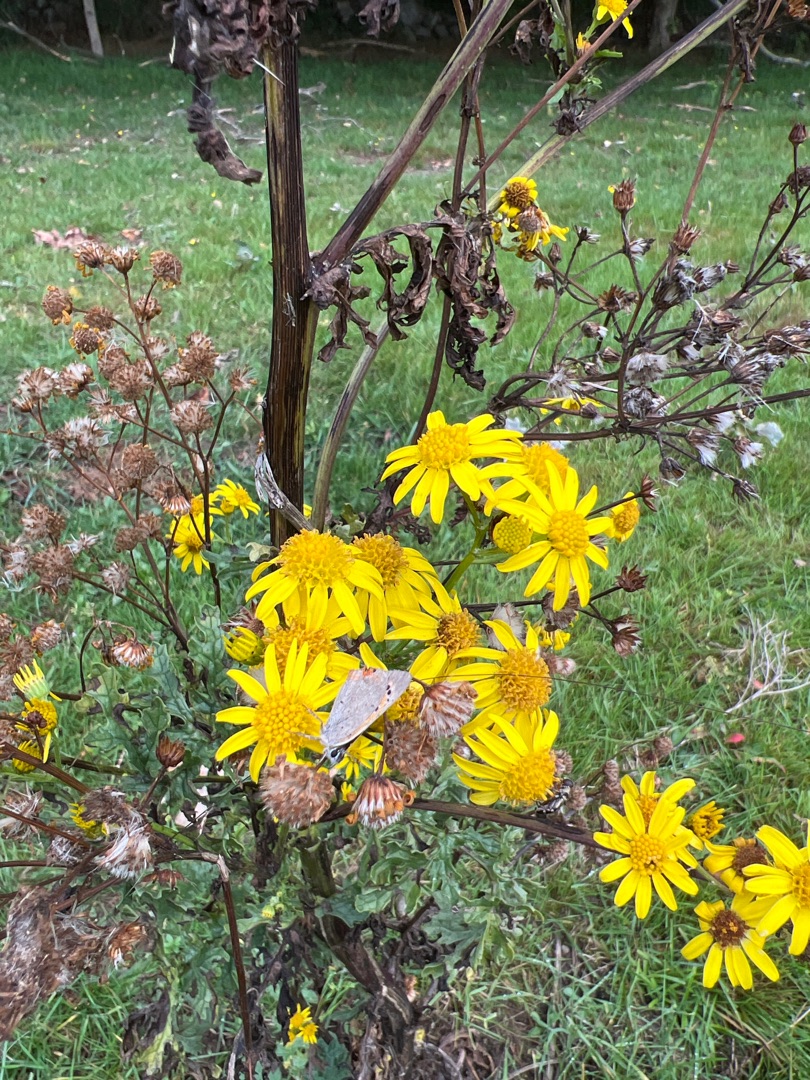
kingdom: Plantae
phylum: Tracheophyta
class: Magnoliopsida
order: Asterales
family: Asteraceae
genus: Jacobaea
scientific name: Jacobaea vulgaris
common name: Eng-brandbæger
